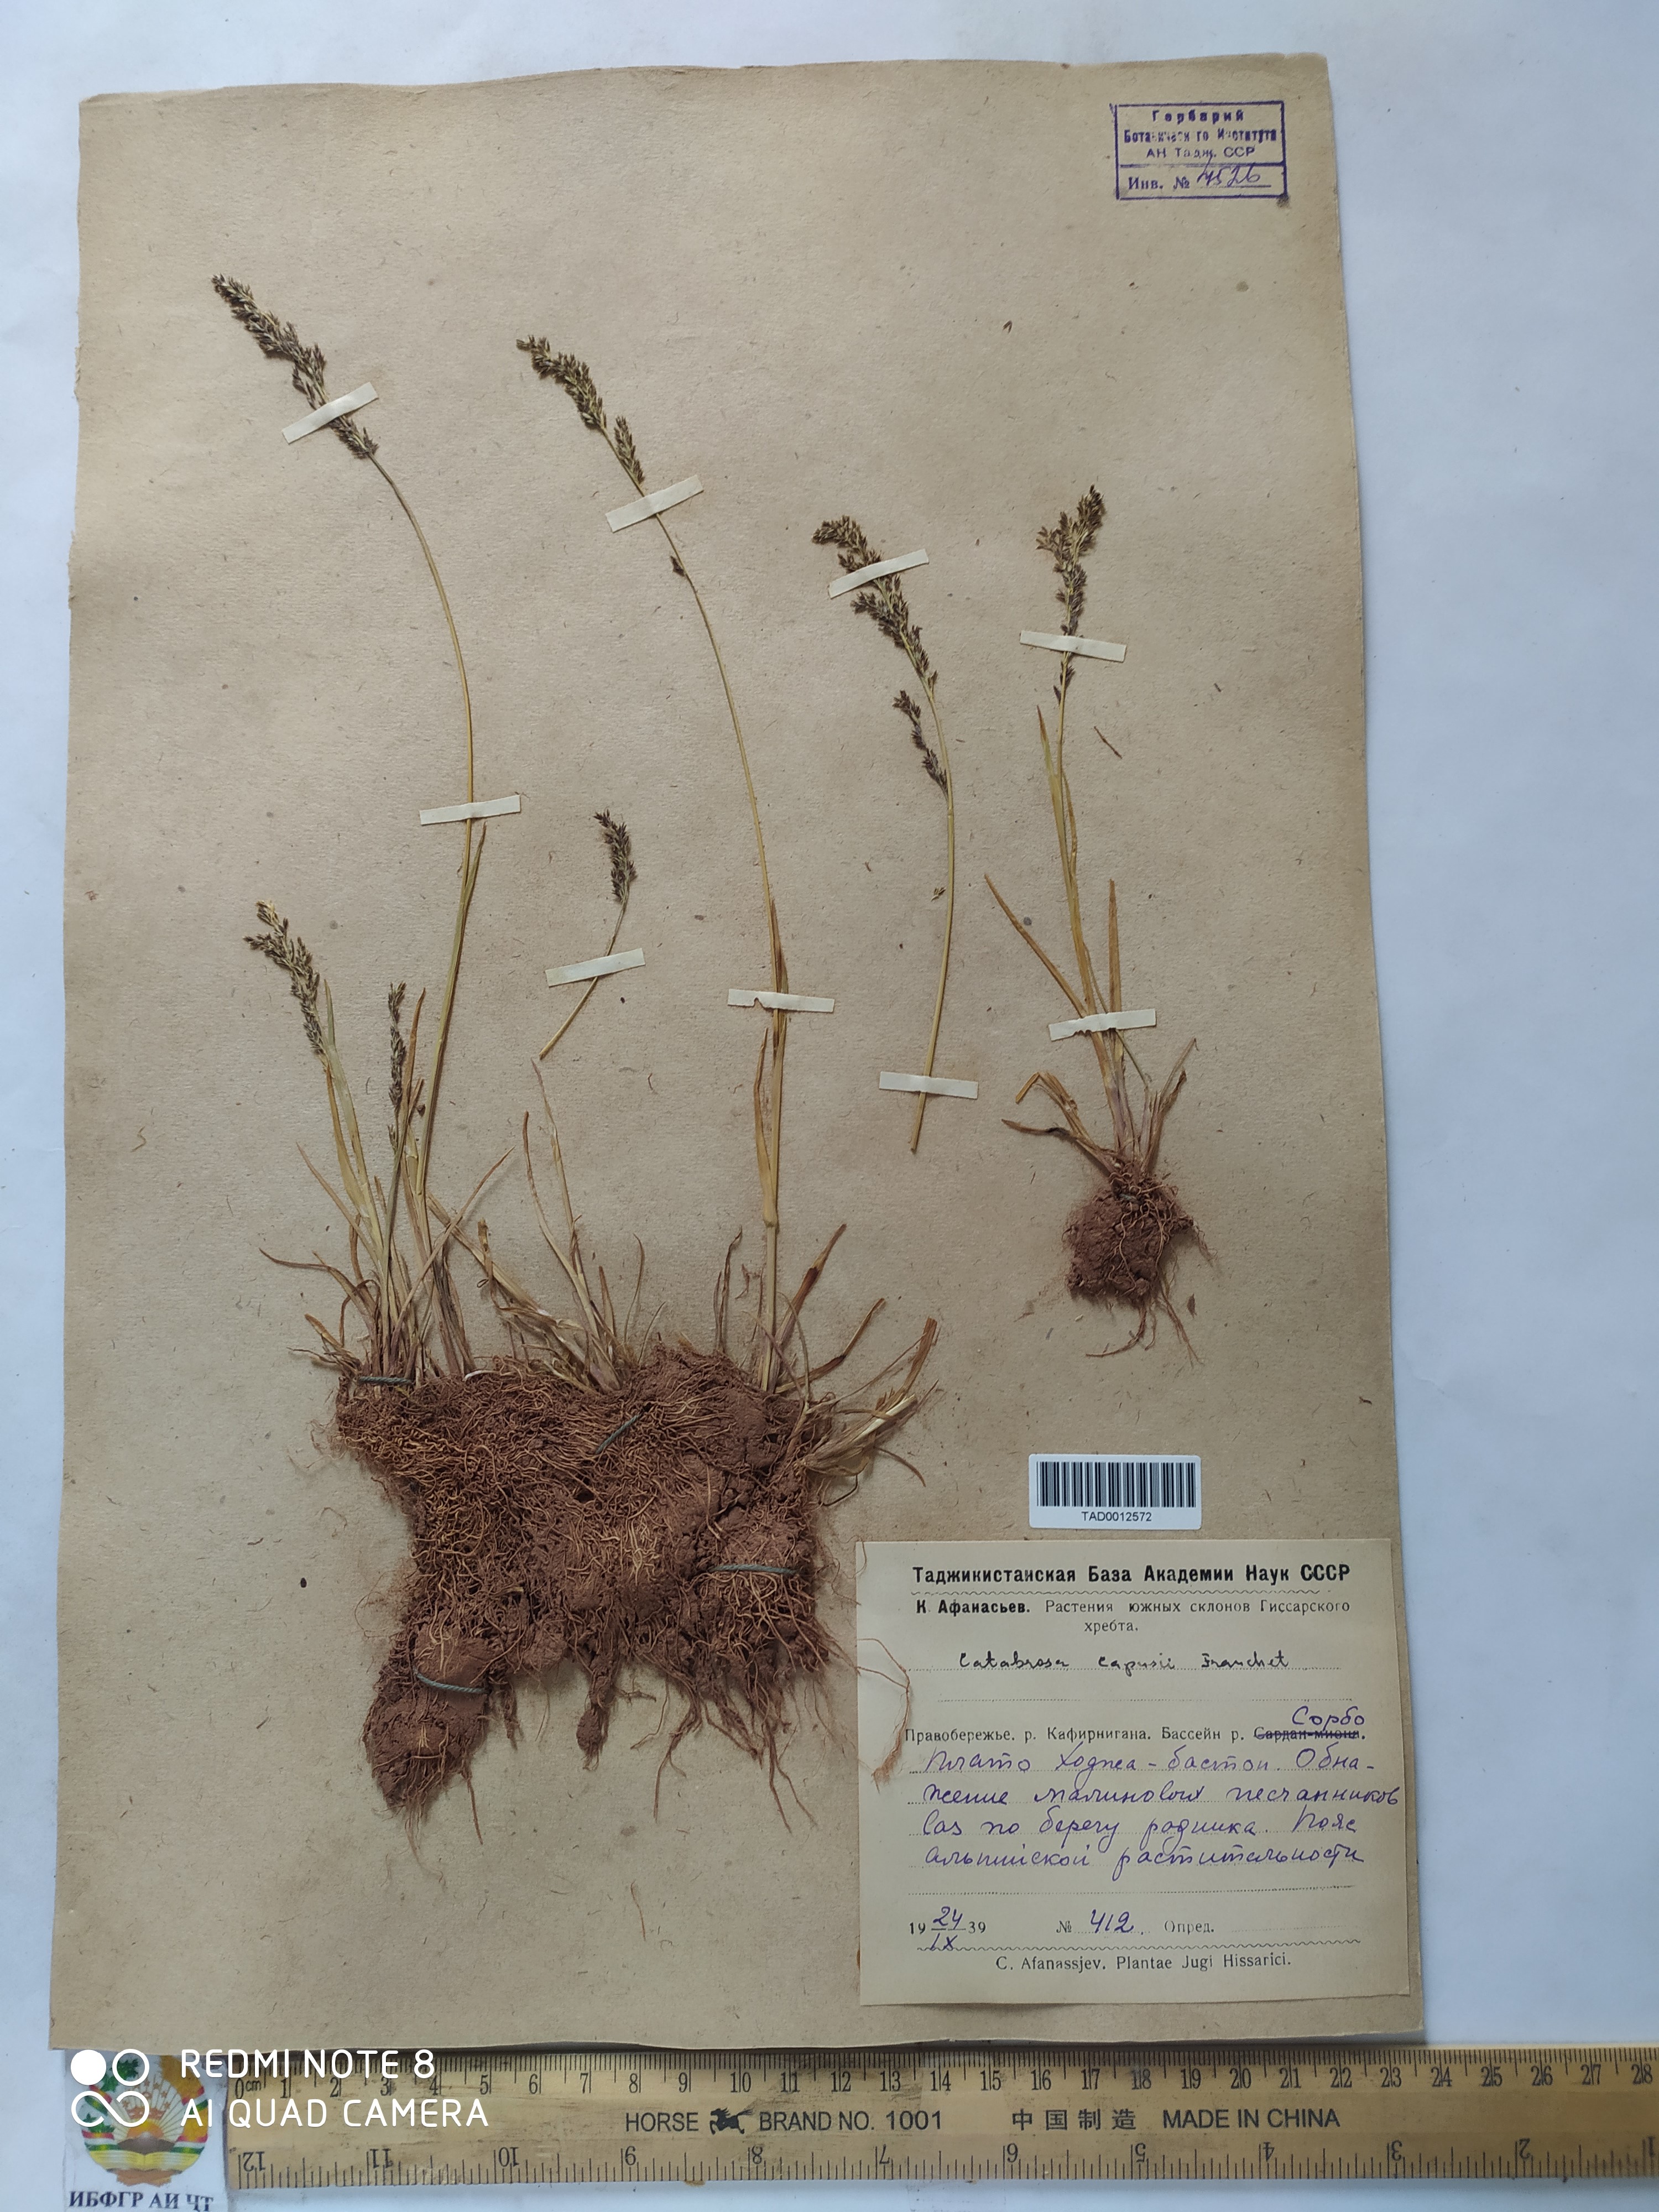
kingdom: Plantae
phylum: Tracheophyta
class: Liliopsida
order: Poales
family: Poaceae
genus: Catabrosa
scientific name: Catabrosa aquatica
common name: Whorl-grass
